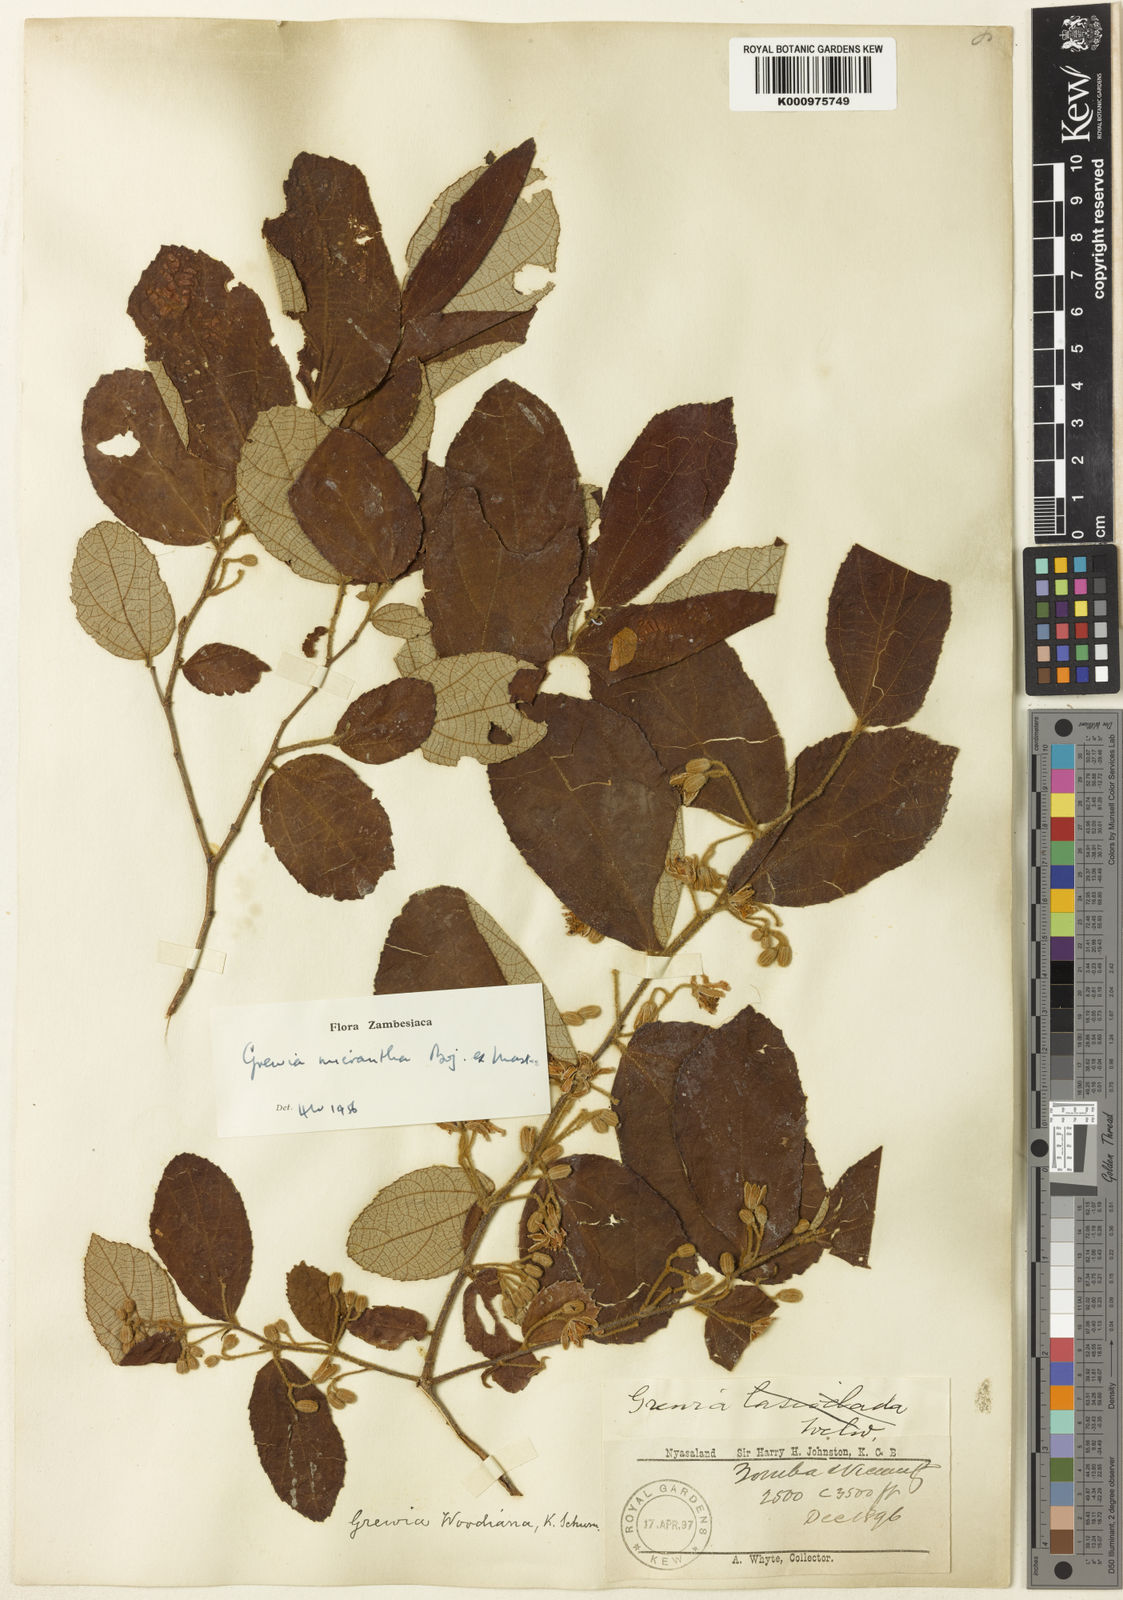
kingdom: Plantae
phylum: Tracheophyta
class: Magnoliopsida
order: Malvales
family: Malvaceae
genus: Grewia
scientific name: Grewia
